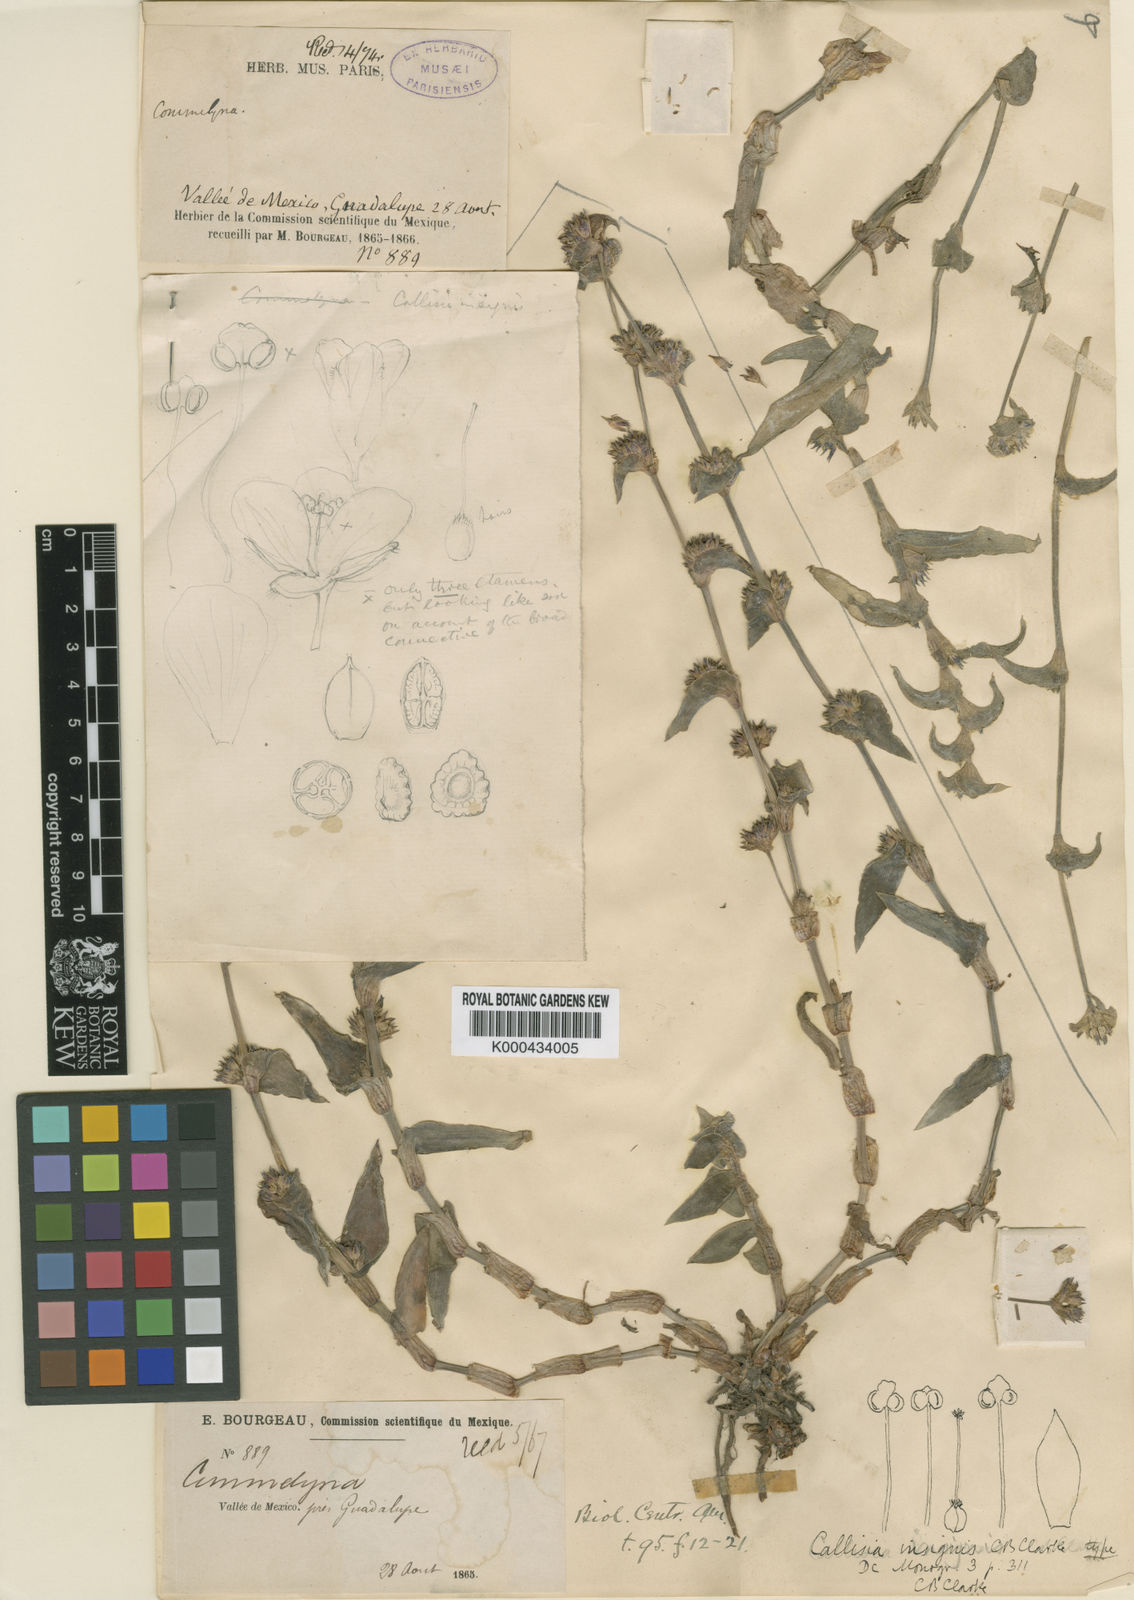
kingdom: Plantae
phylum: Tracheophyta
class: Liliopsida
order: Commelinales
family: Commelinaceae
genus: Callisia
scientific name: Callisia insignis
